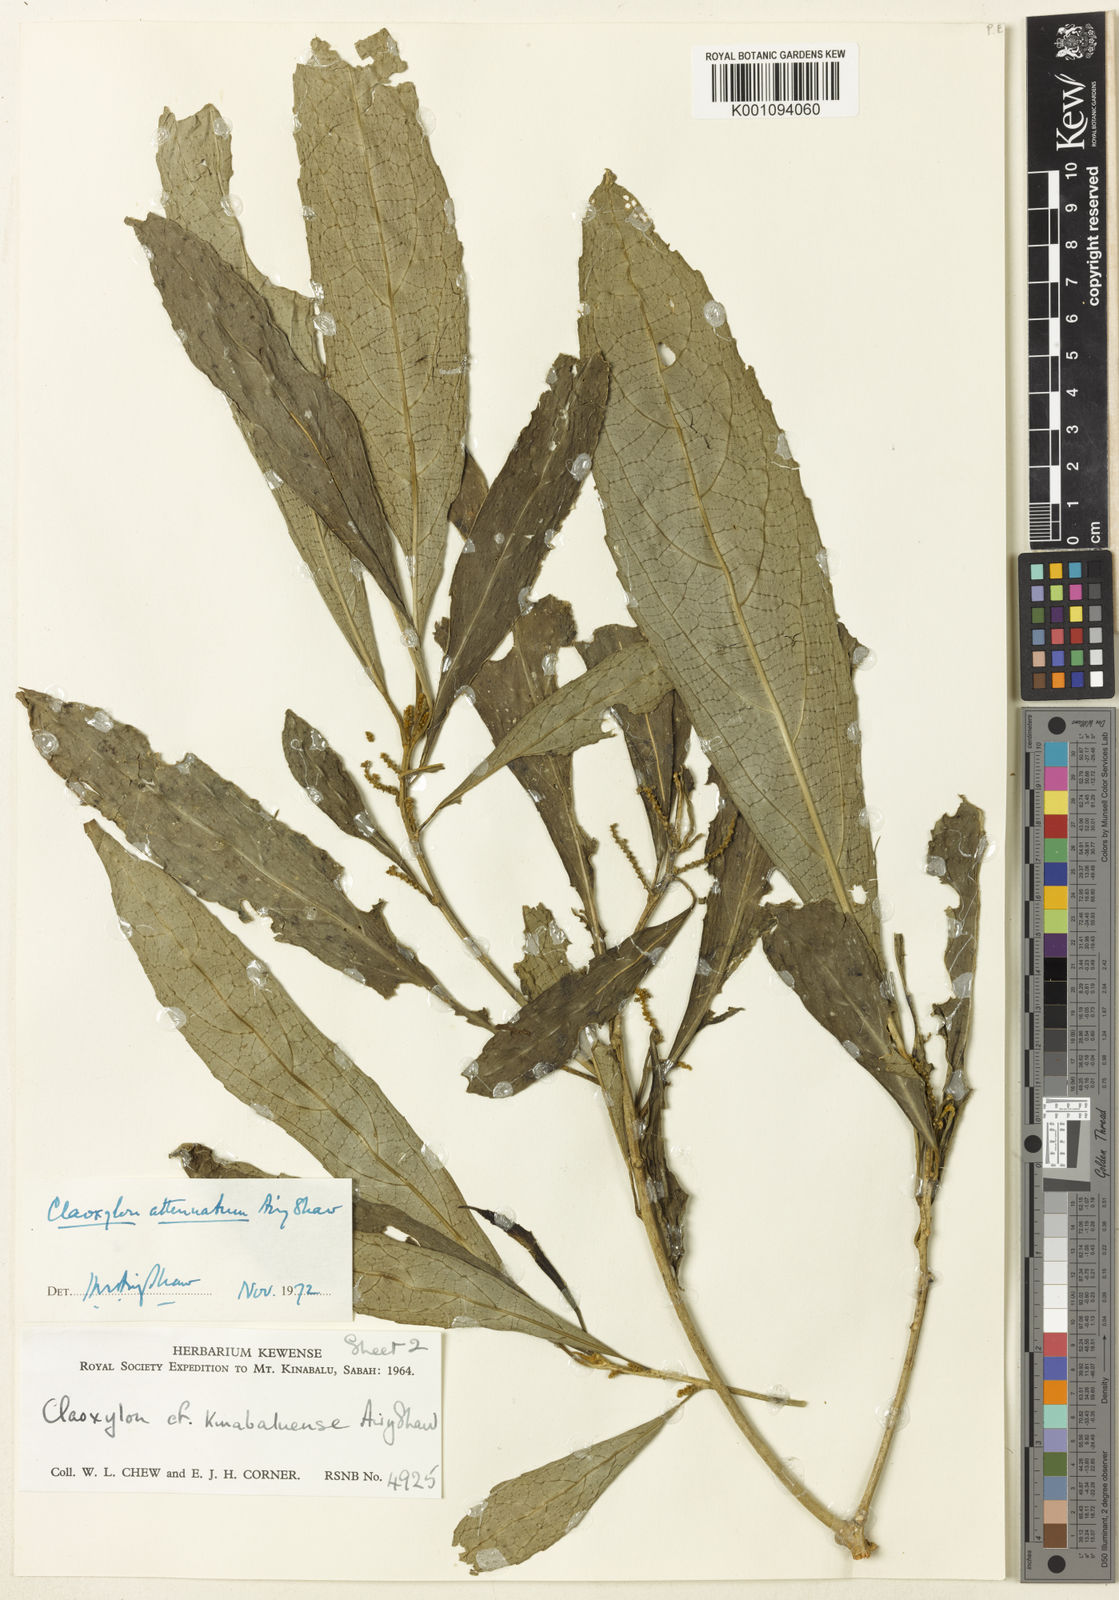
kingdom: Plantae
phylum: Tracheophyta
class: Magnoliopsida
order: Malpighiales
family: Euphorbiaceae
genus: Claoxylon
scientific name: Claoxylon attenuatum
